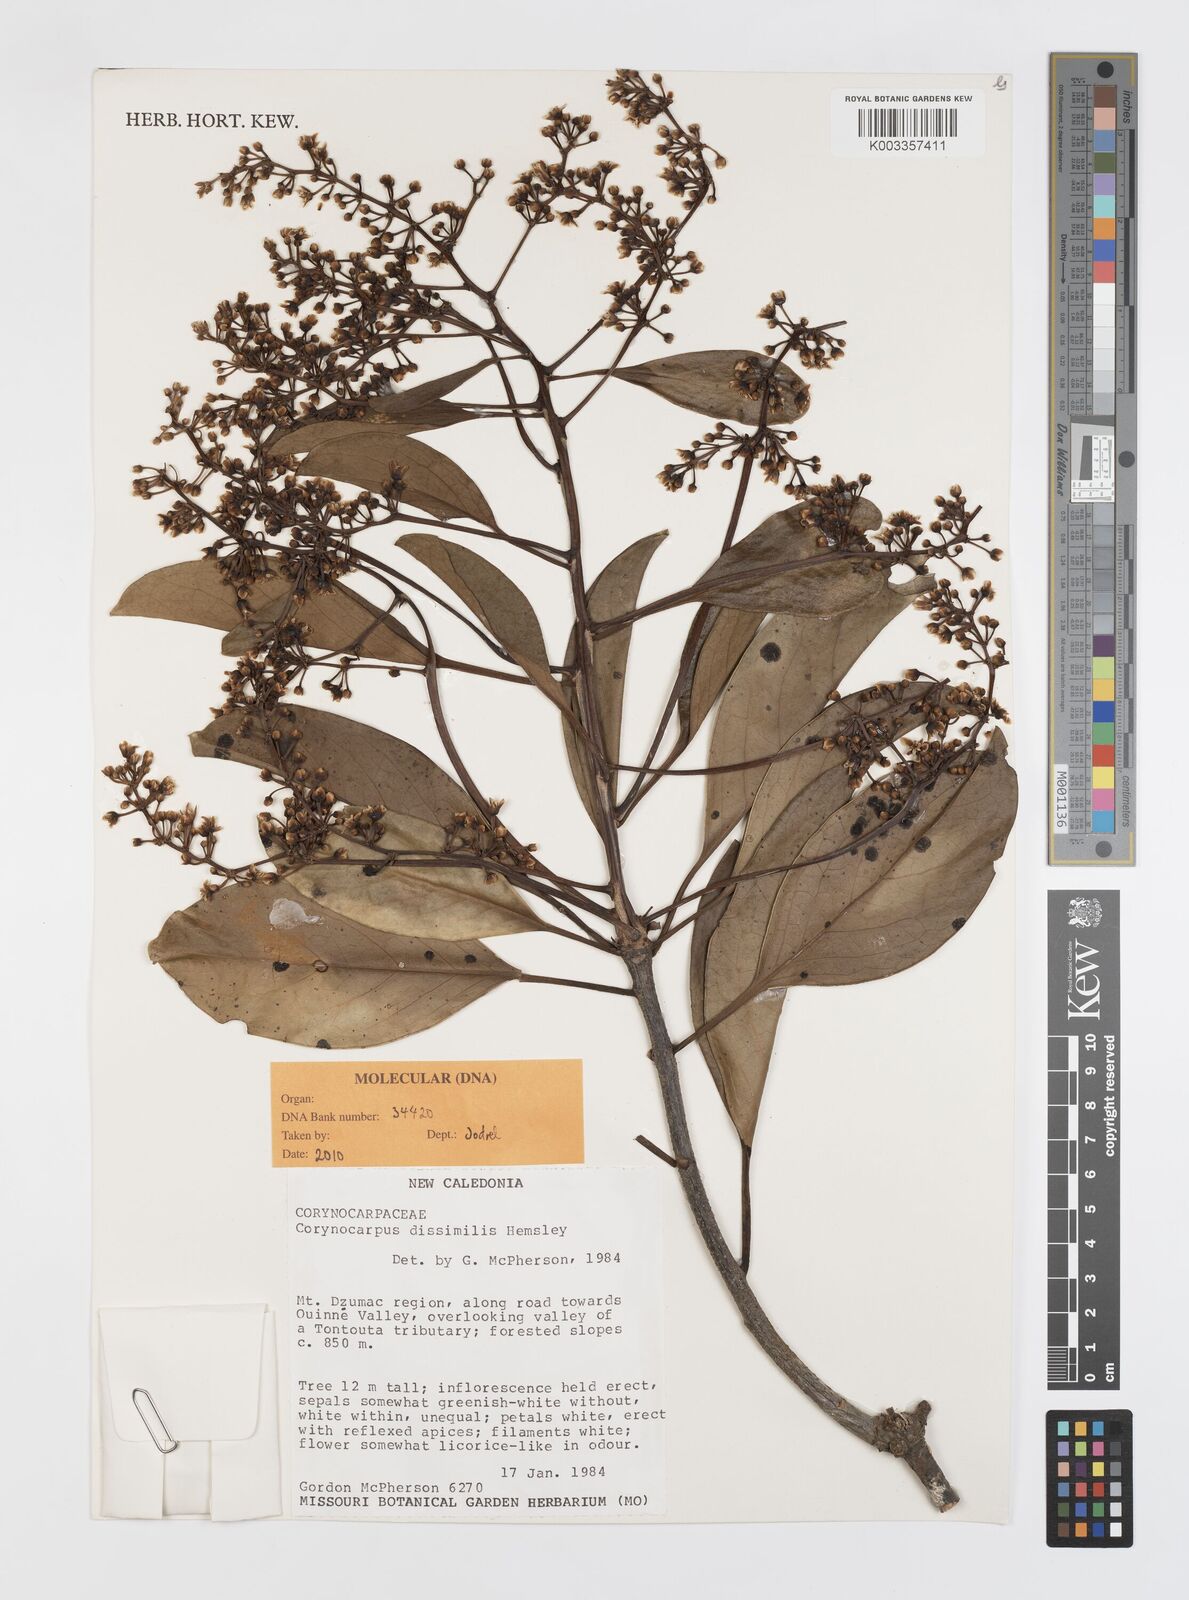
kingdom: Plantae
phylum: Tracheophyta
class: Magnoliopsida
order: Cucurbitales
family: Corynocarpaceae
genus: Corynocarpus
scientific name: Corynocarpus dissimilis
